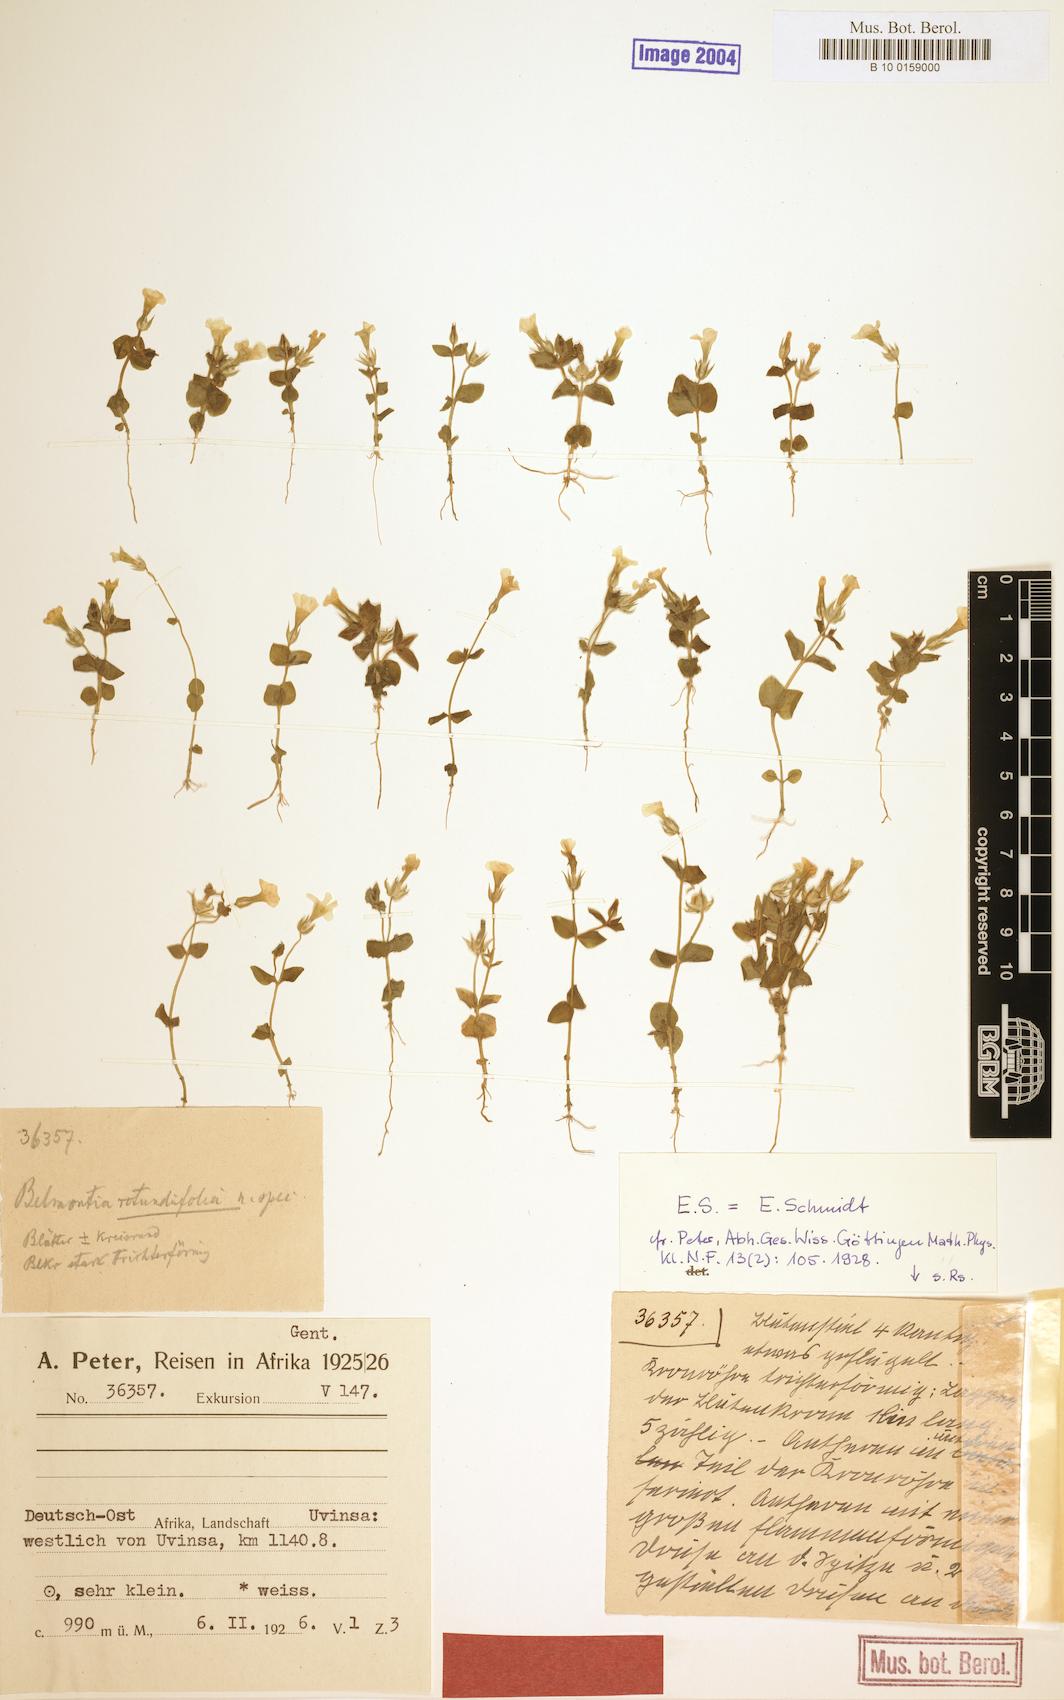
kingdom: Plantae
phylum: Tracheophyta
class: Magnoliopsida
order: Gentianales
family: Gentianaceae
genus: Sebaea
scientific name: Sebaea procumbens
